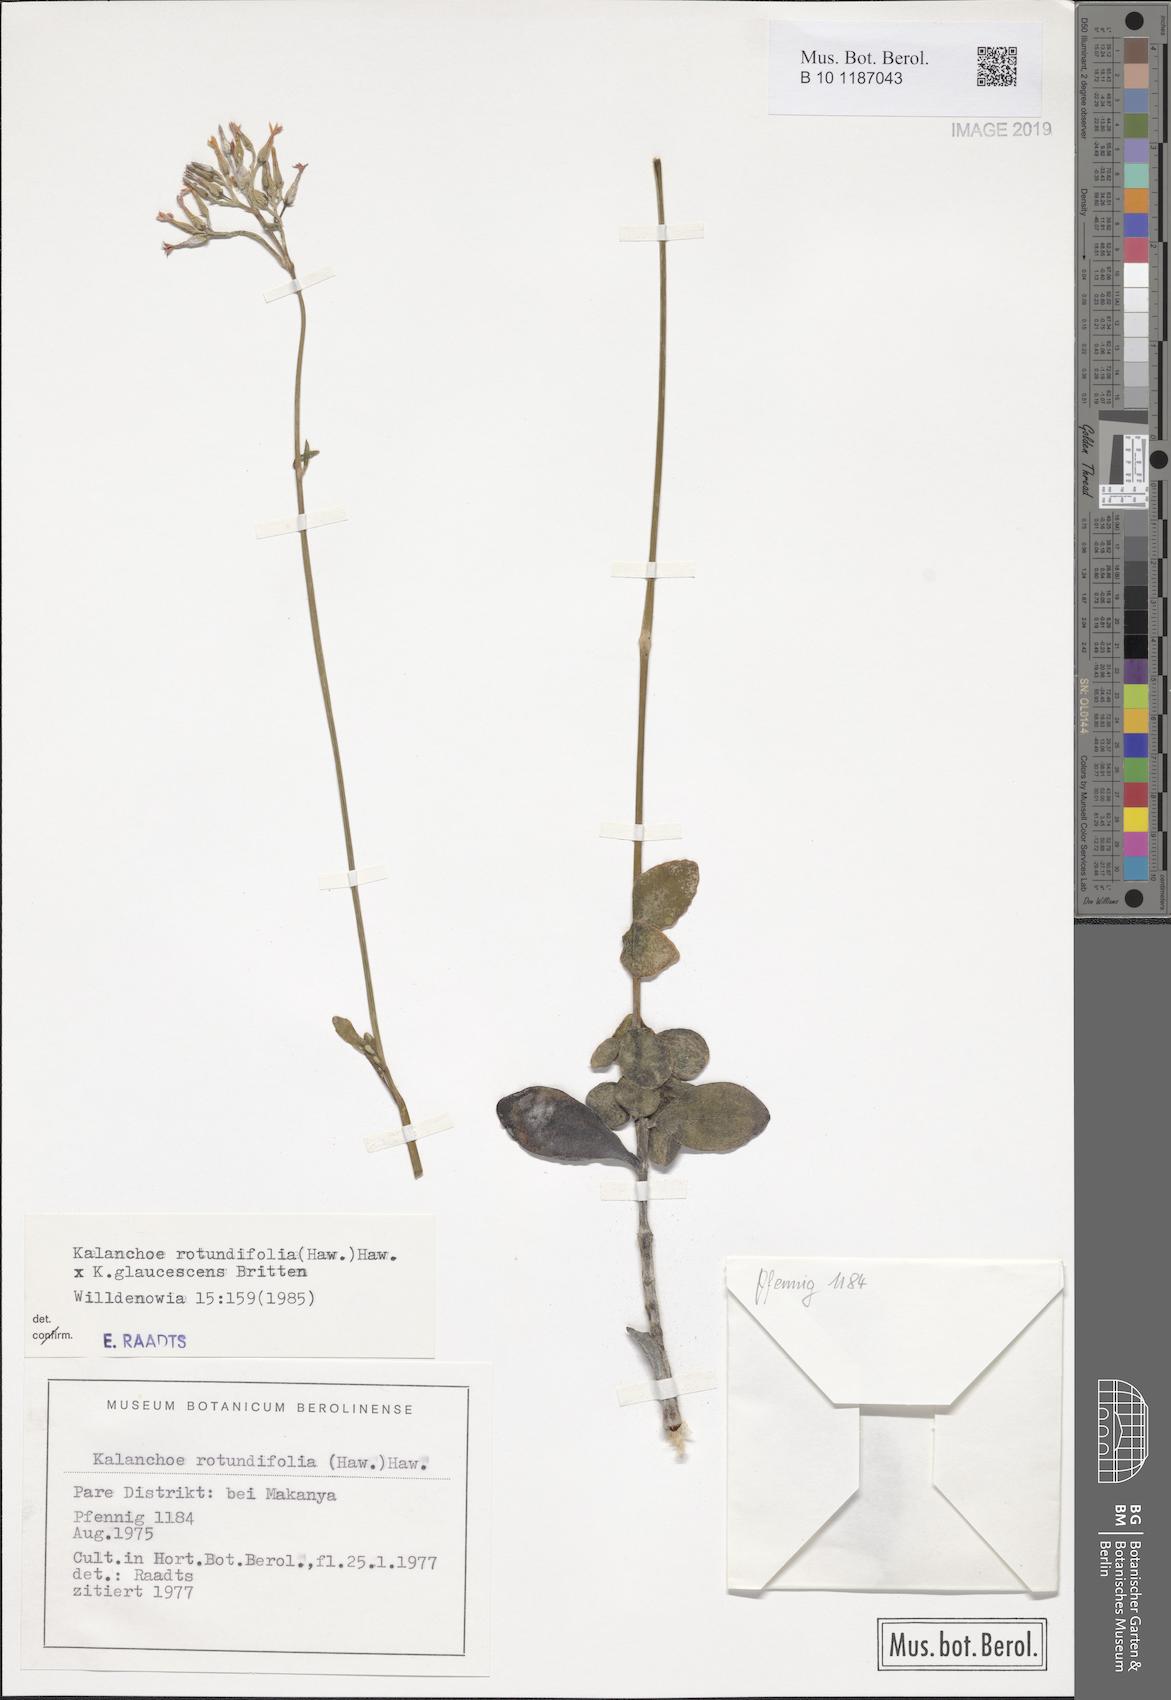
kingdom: Plantae
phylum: Tracheophyta
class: Magnoliopsida
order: Saxifragales
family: Crassulaceae
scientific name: Crassulaceae
